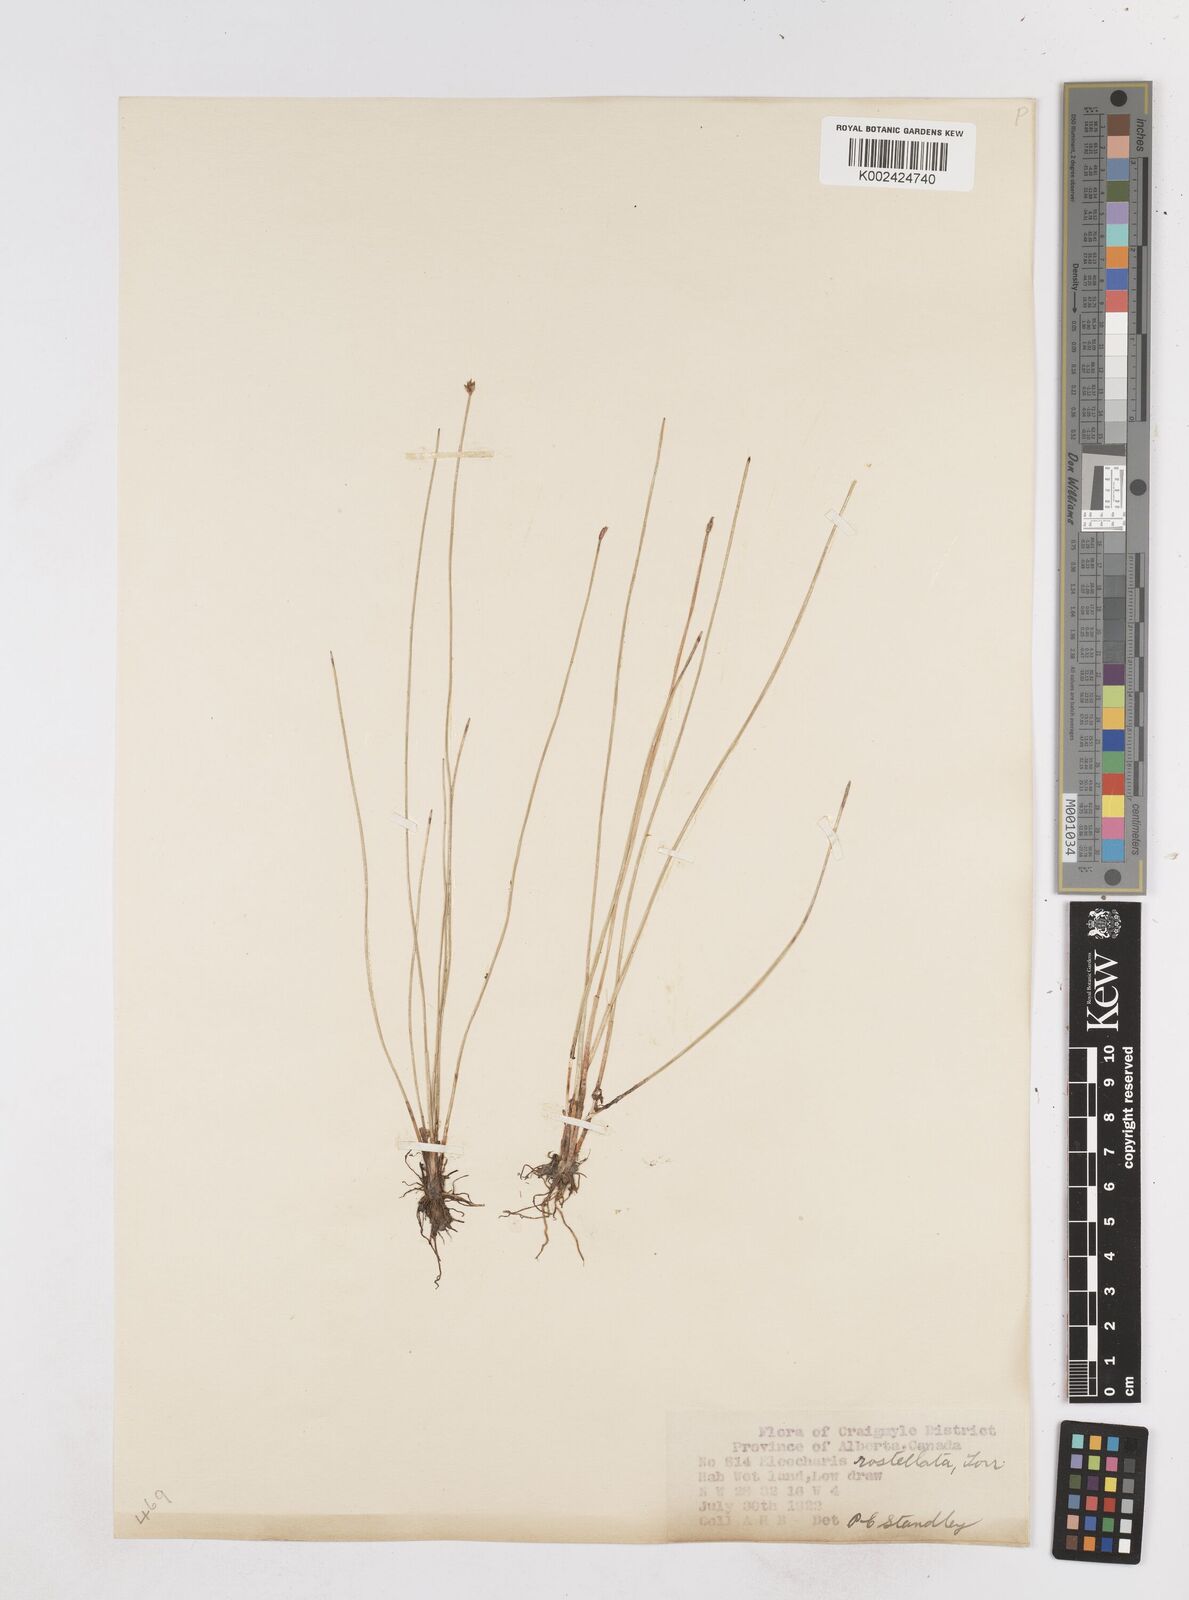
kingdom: Plantae
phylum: Tracheophyta
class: Liliopsida
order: Poales
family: Cyperaceae
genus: Eleocharis
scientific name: Eleocharis rostellata
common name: Walking sedge
